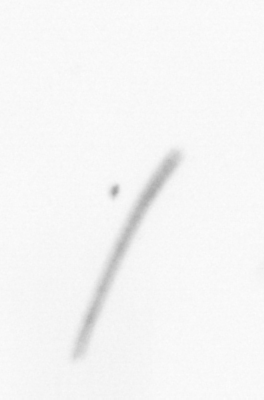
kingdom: Chromista
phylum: Ochrophyta
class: Bacillariophyceae
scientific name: Bacillariophyceae
